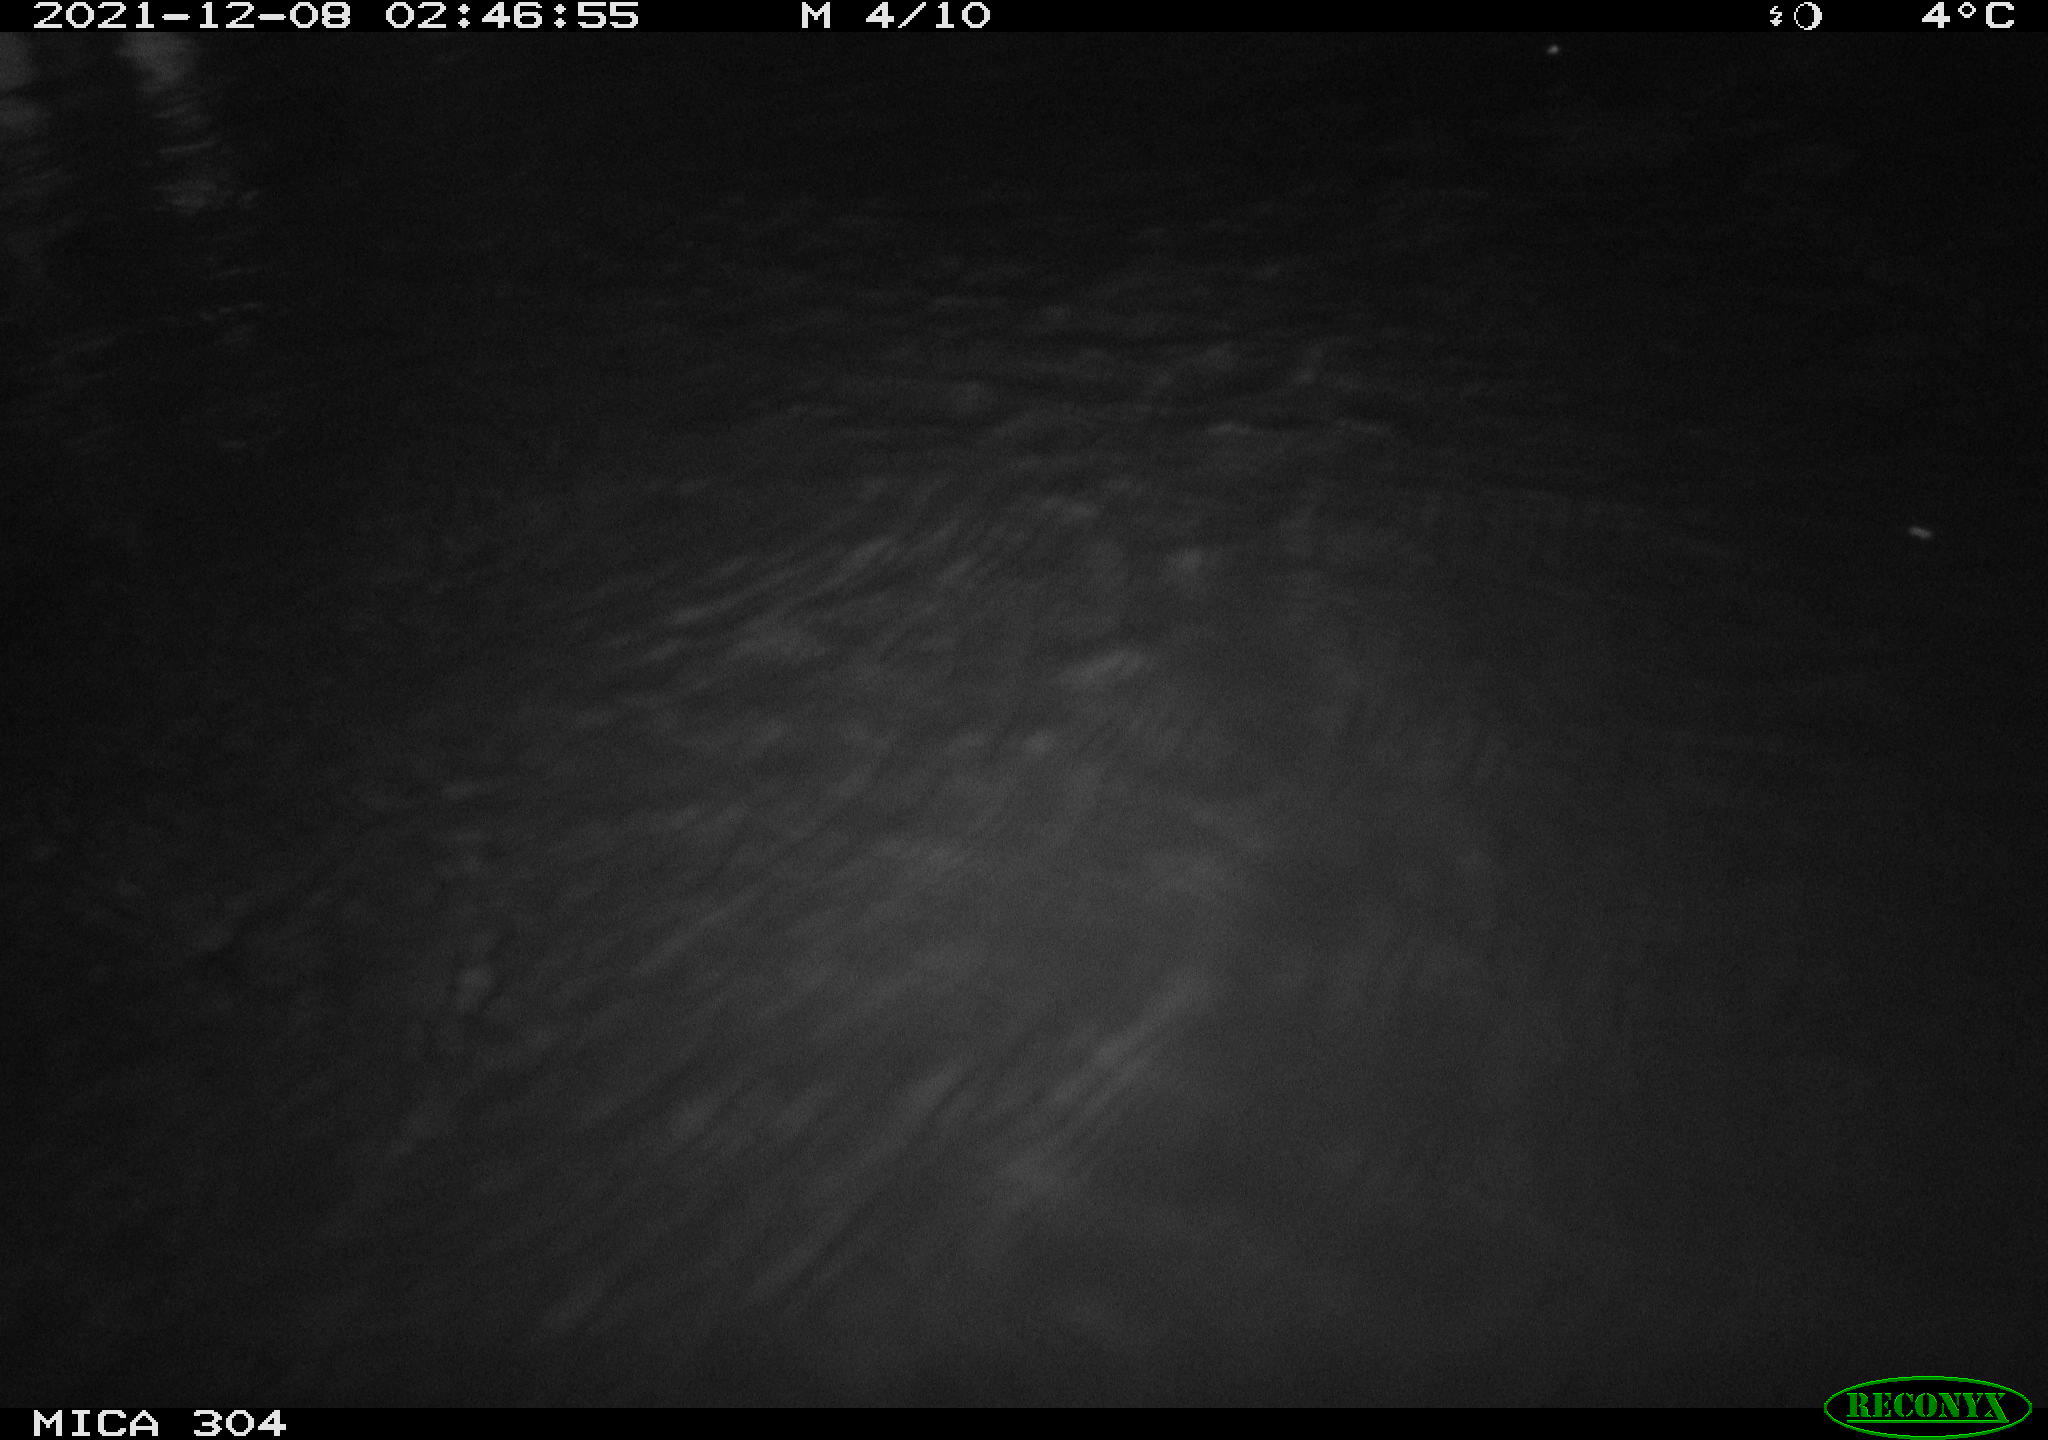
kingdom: Animalia
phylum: Chordata
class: Mammalia
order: Rodentia
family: Muridae
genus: Rattus
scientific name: Rattus norvegicus
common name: Brown rat
